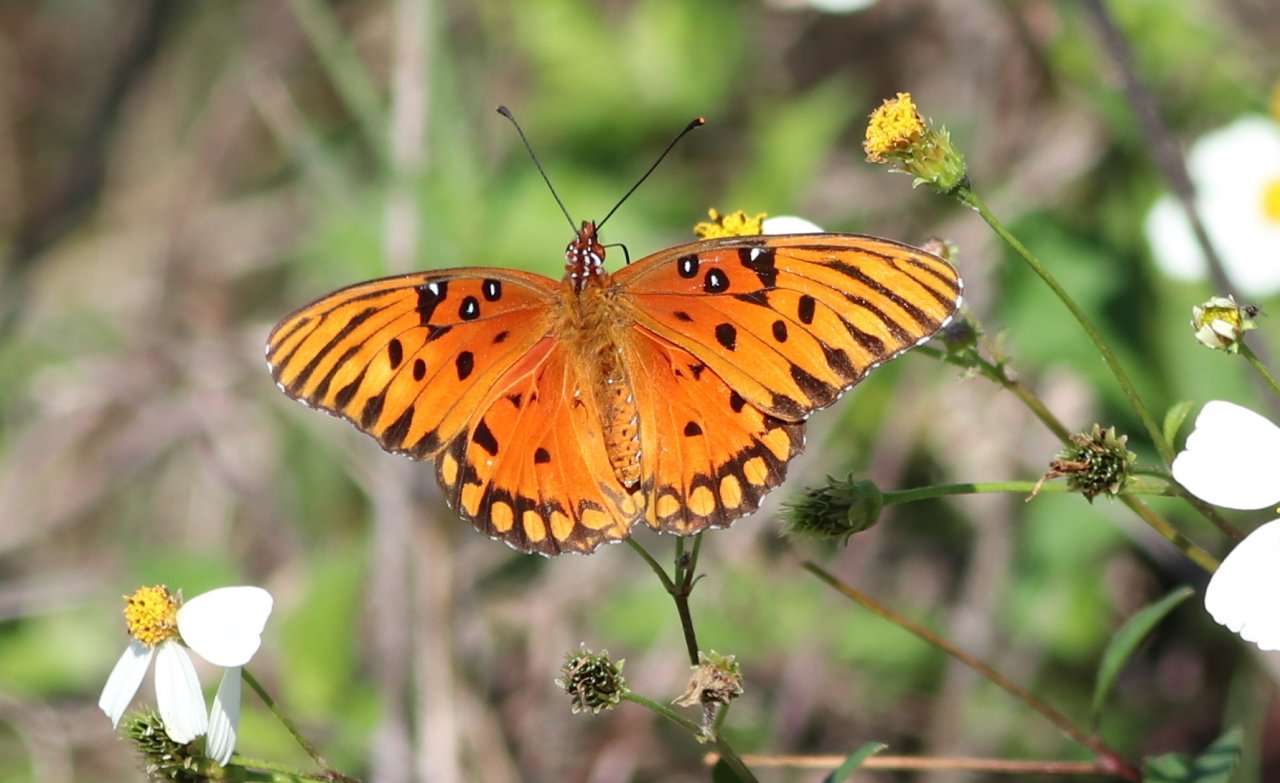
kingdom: Animalia
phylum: Arthropoda
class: Insecta
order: Lepidoptera
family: Nymphalidae
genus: Dione
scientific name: Dione vanillae
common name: Gulf Fritillary
